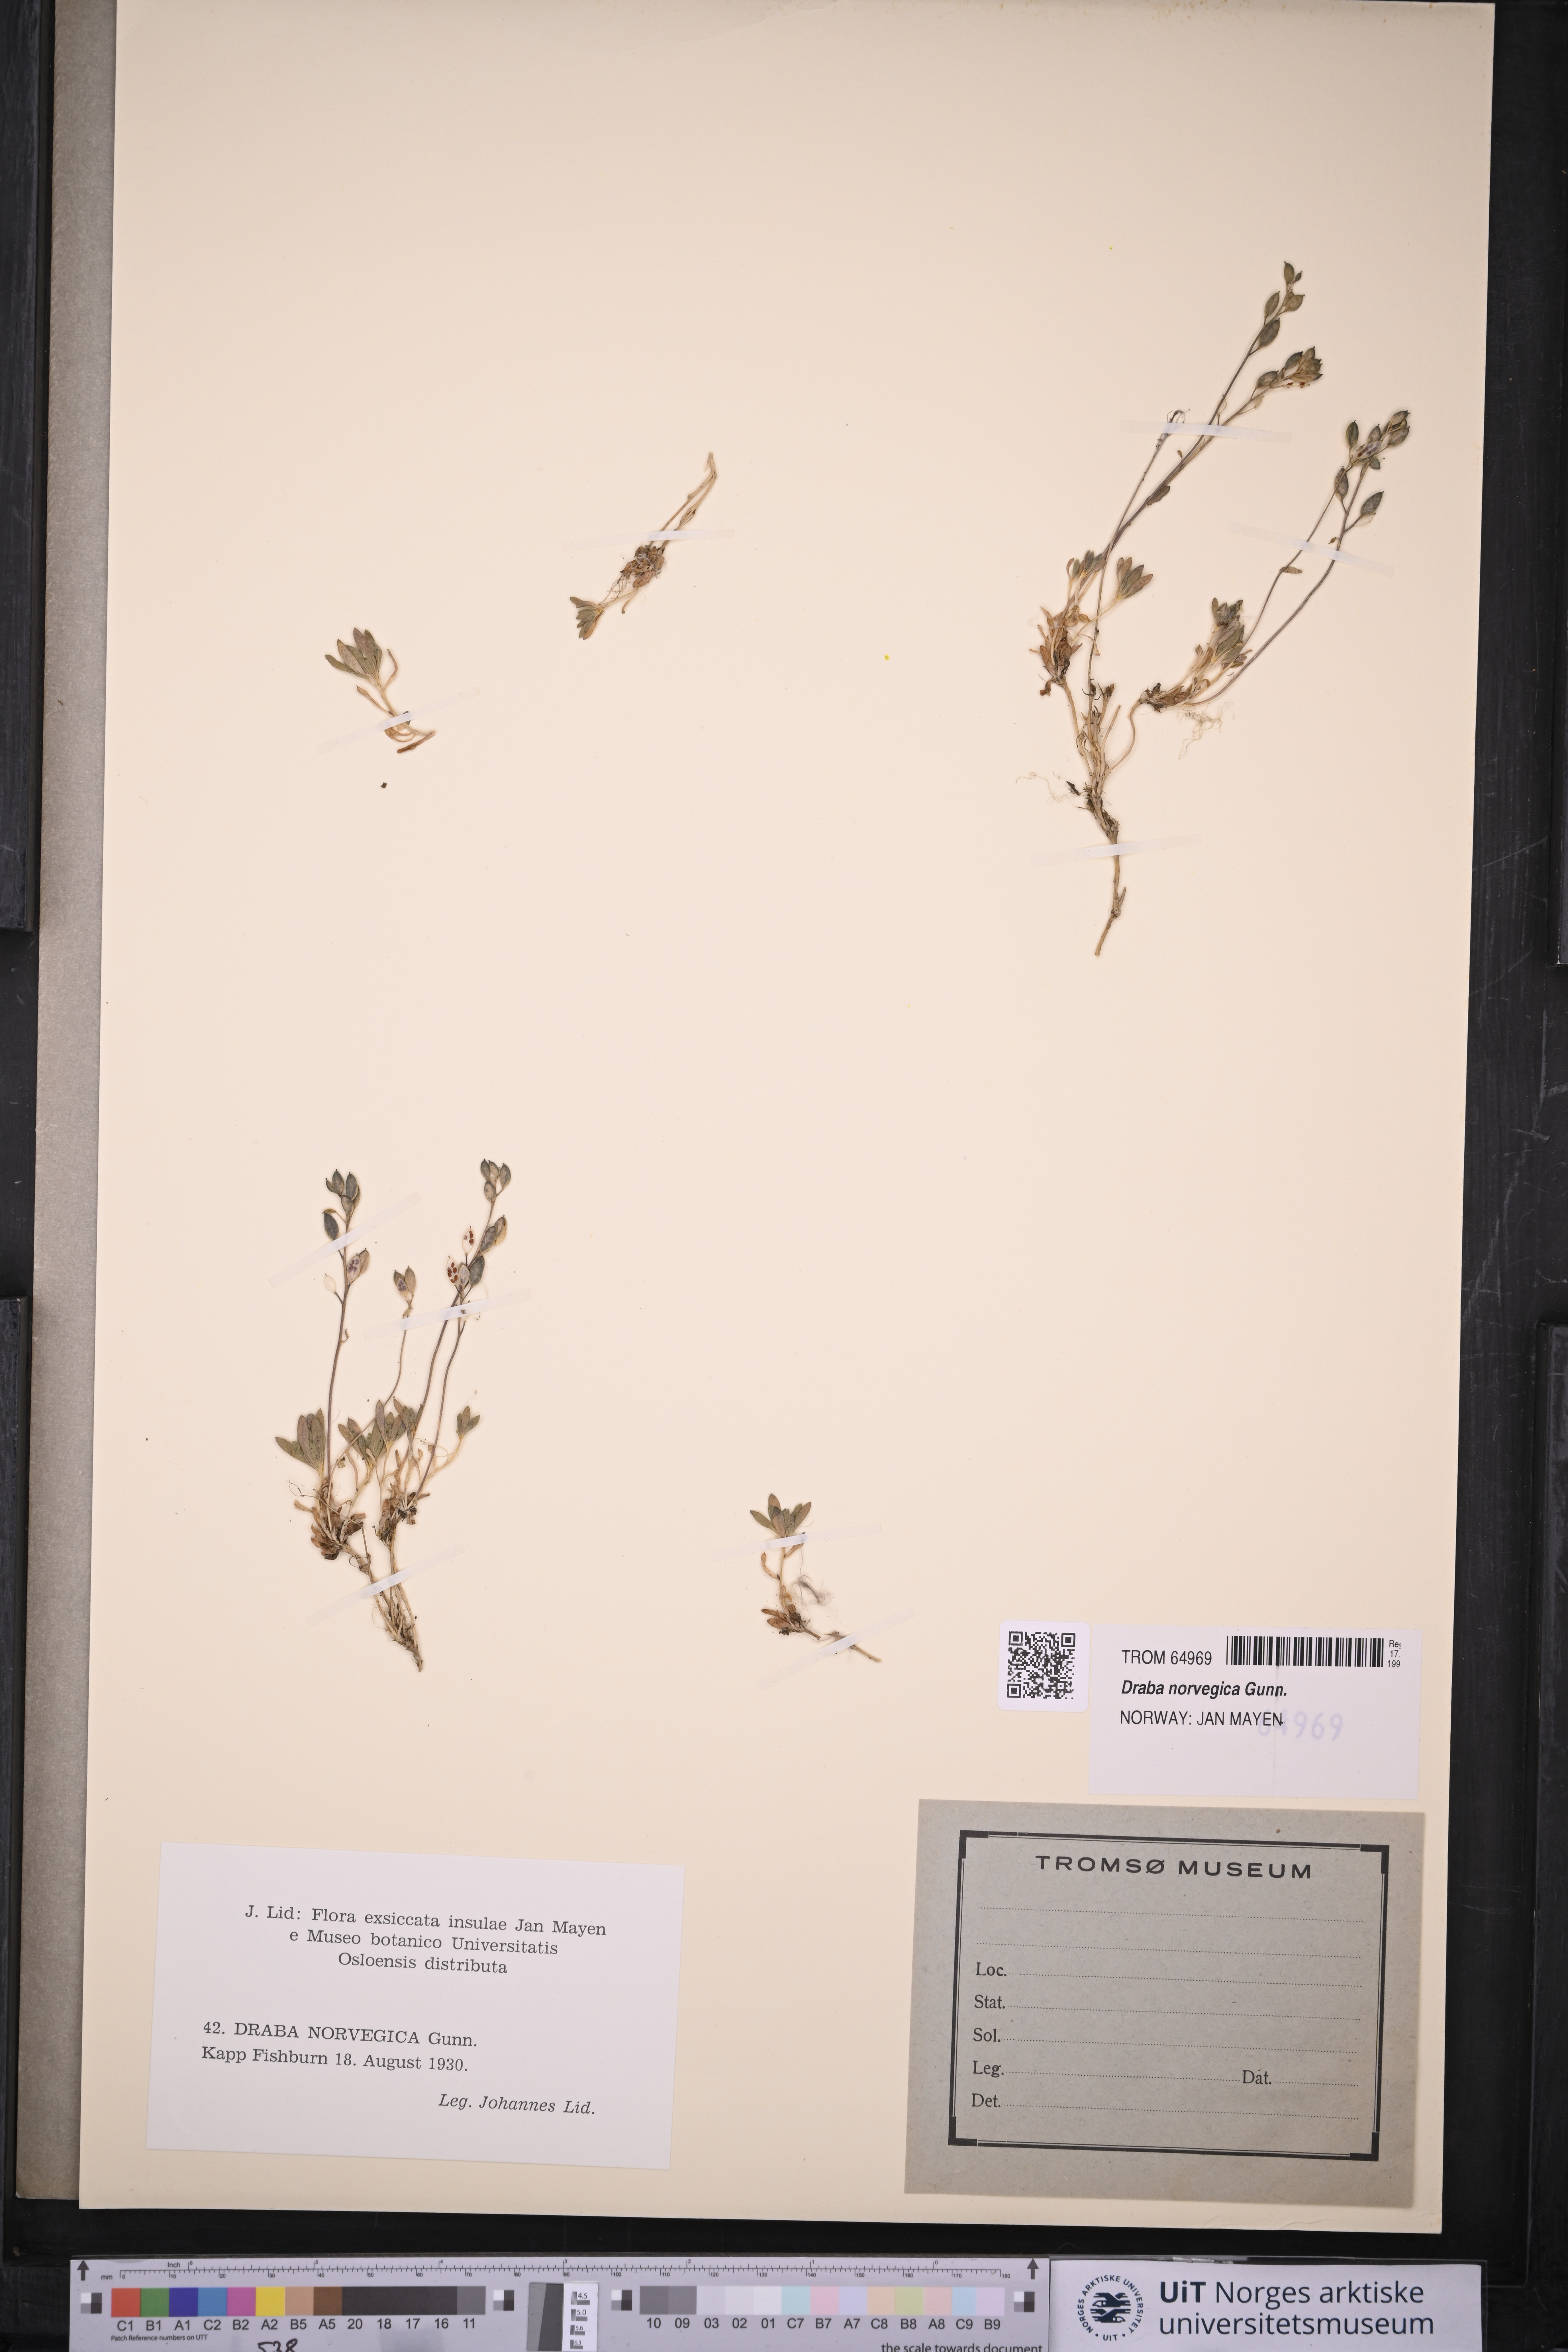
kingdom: Plantae
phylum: Tracheophyta
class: Magnoliopsida
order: Brassicales
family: Brassicaceae
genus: Draba
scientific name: Draba norvegica
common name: Rock whitlowgrass
